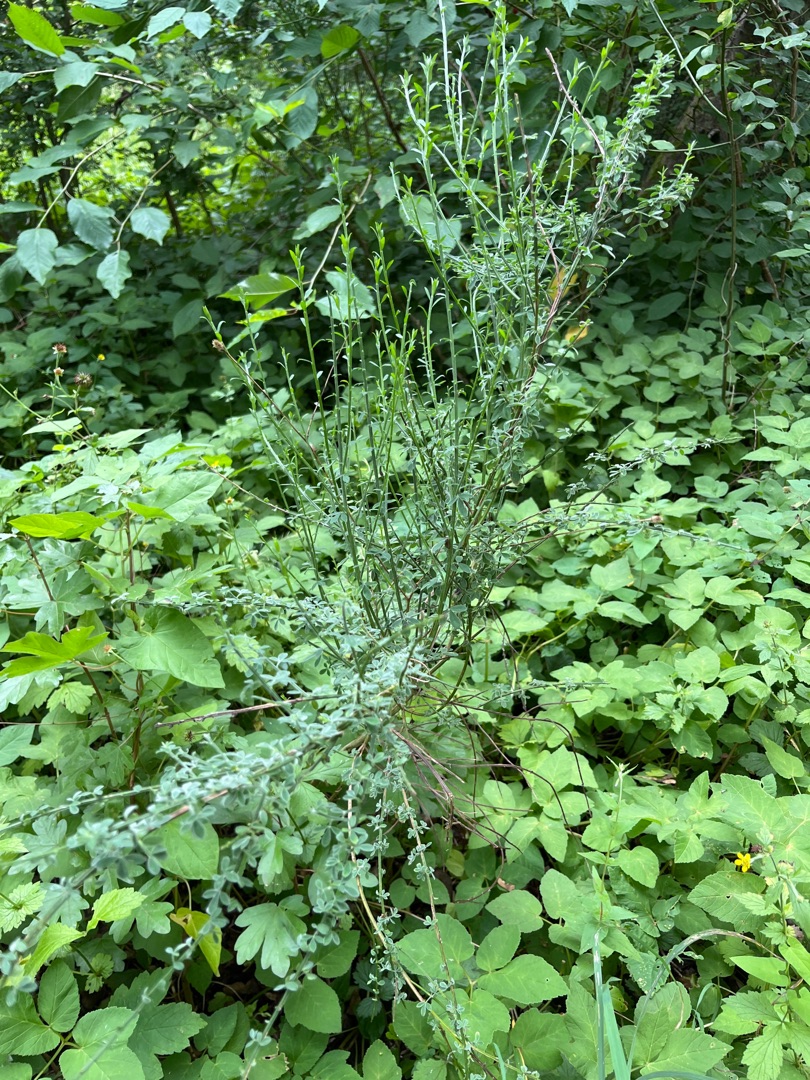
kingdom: Plantae
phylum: Tracheophyta
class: Magnoliopsida
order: Fabales
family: Fabaceae
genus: Cytisus
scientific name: Cytisus scoparius
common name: Almindelig gyvel
